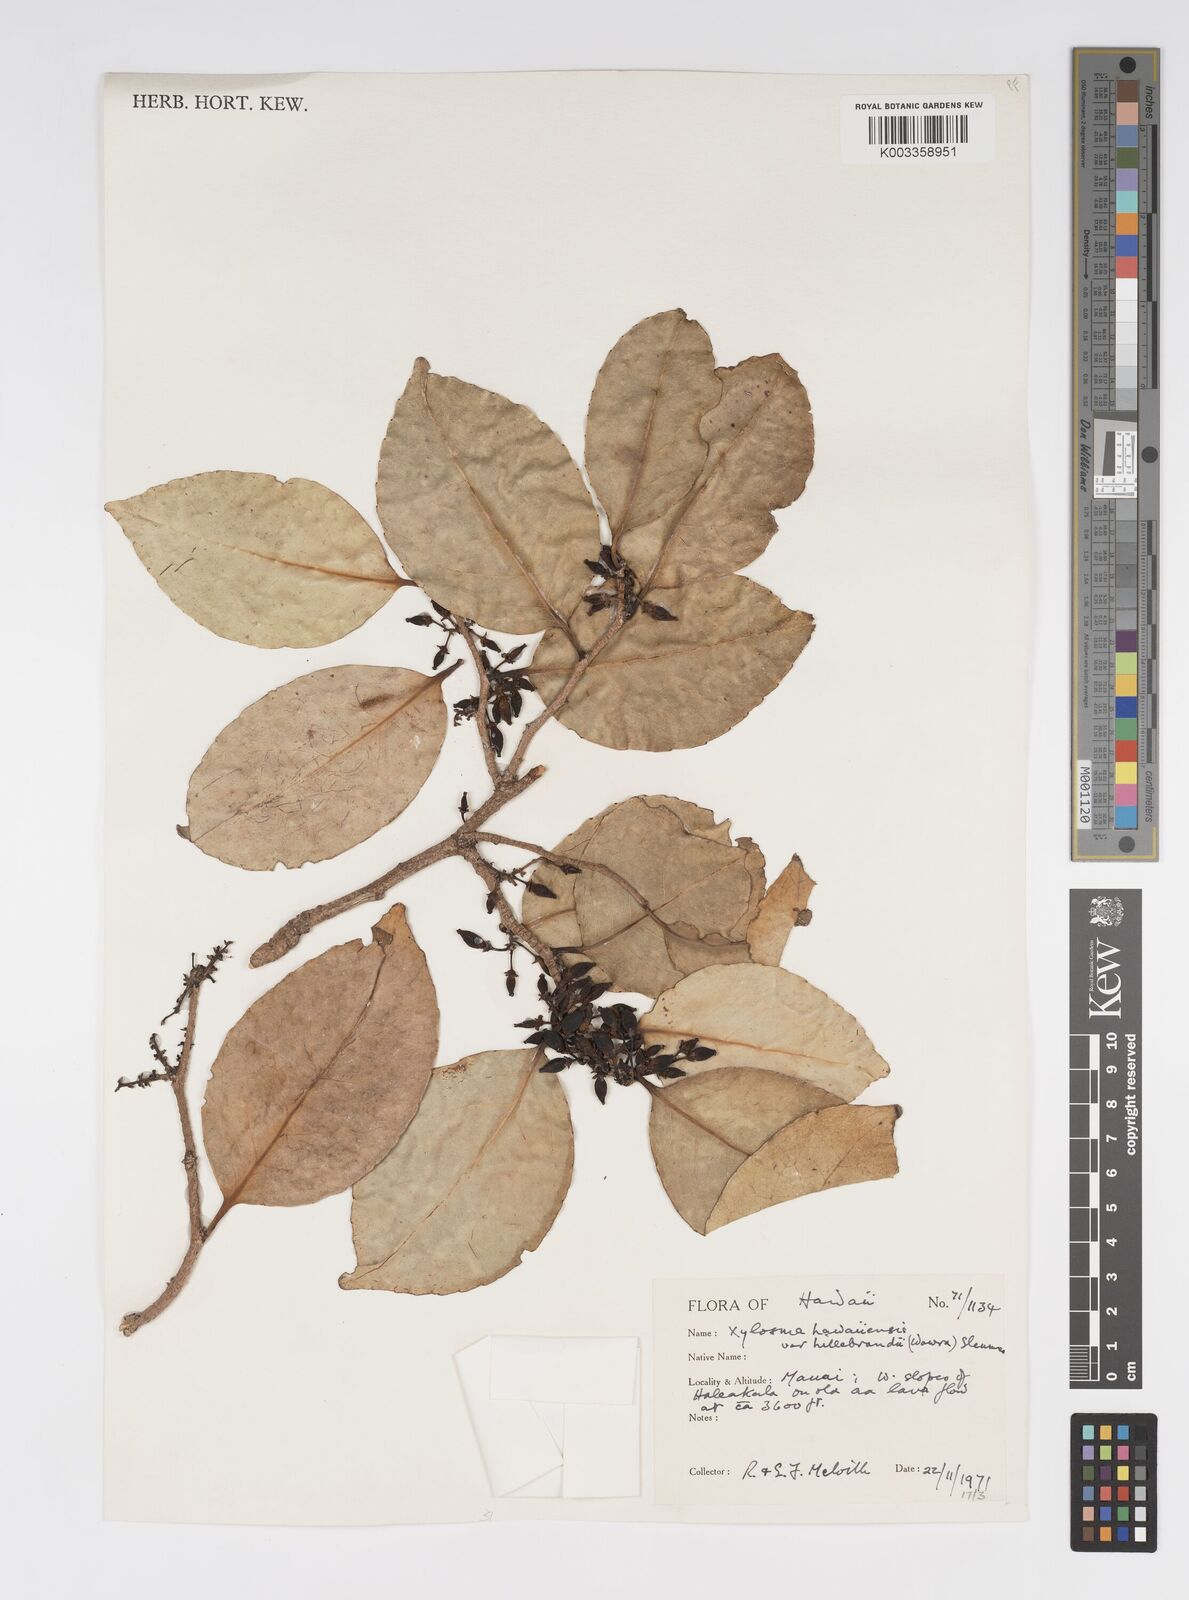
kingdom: Plantae
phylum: Tracheophyta
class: Magnoliopsida
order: Malpighiales
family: Salicaceae
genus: Xylosma
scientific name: Xylosma hawaiense
